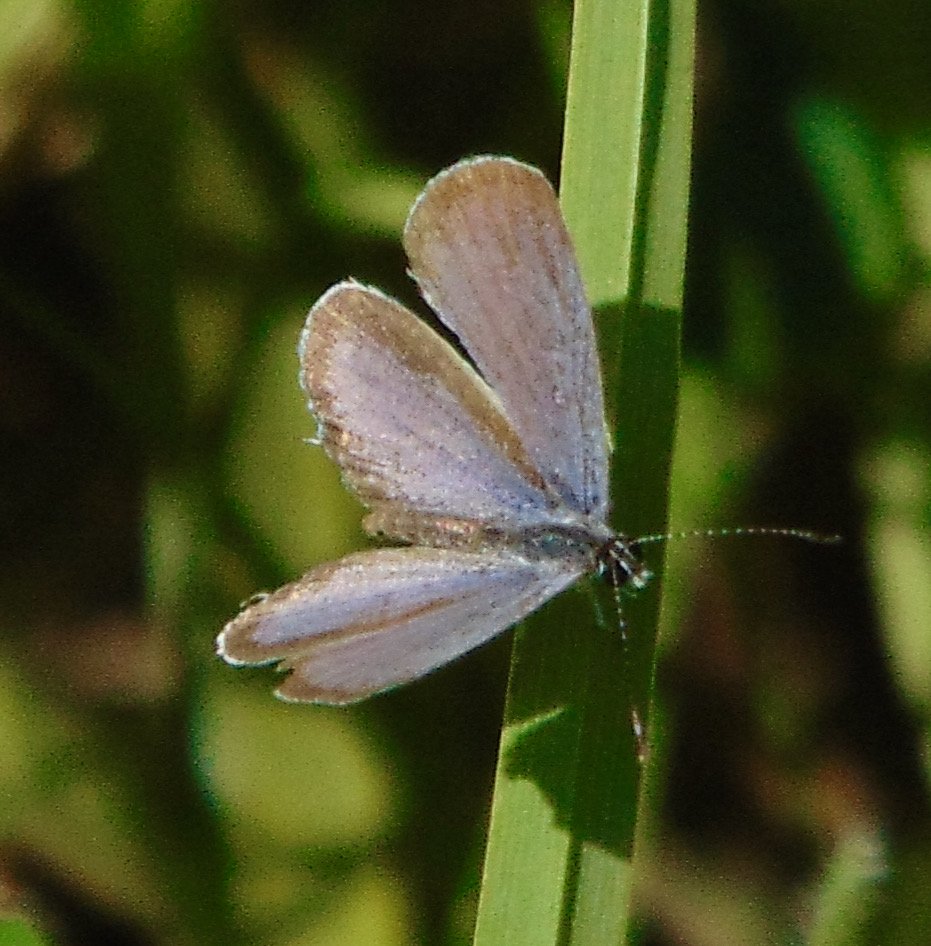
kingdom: Animalia
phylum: Arthropoda
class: Insecta
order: Lepidoptera
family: Lycaenidae
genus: Elkalyce
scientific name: Elkalyce comyntas
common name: Eastern Tailed-Blue
